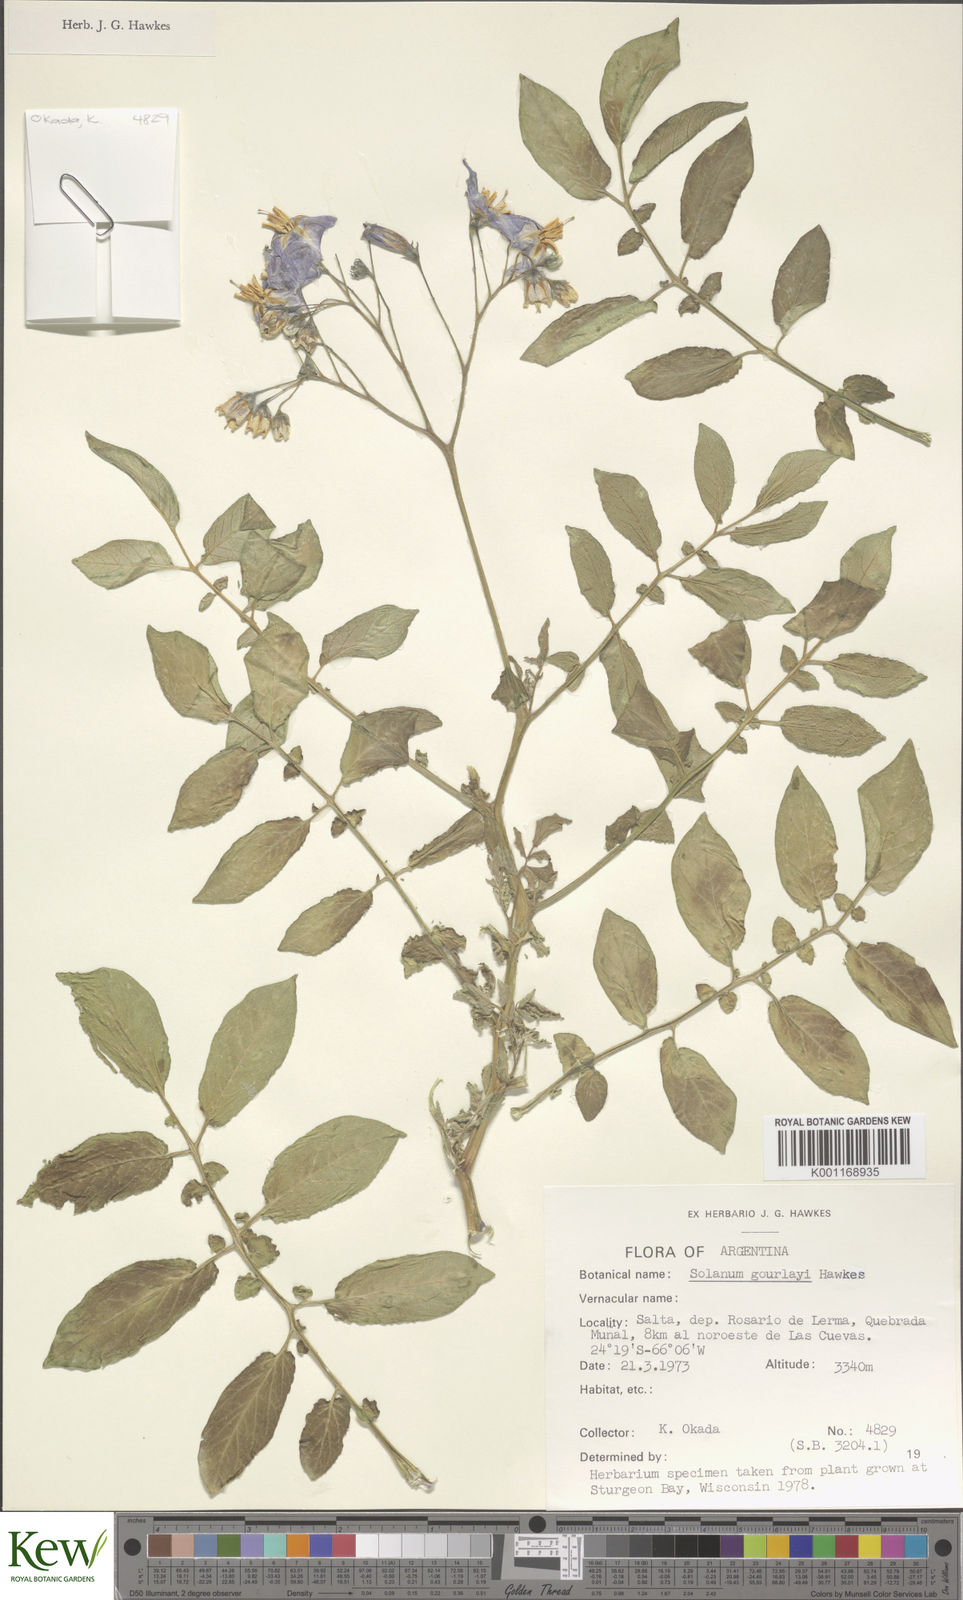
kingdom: Plantae
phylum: Tracheophyta
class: Magnoliopsida
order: Solanales
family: Solanaceae
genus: Solanum
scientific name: Solanum brevicaule
